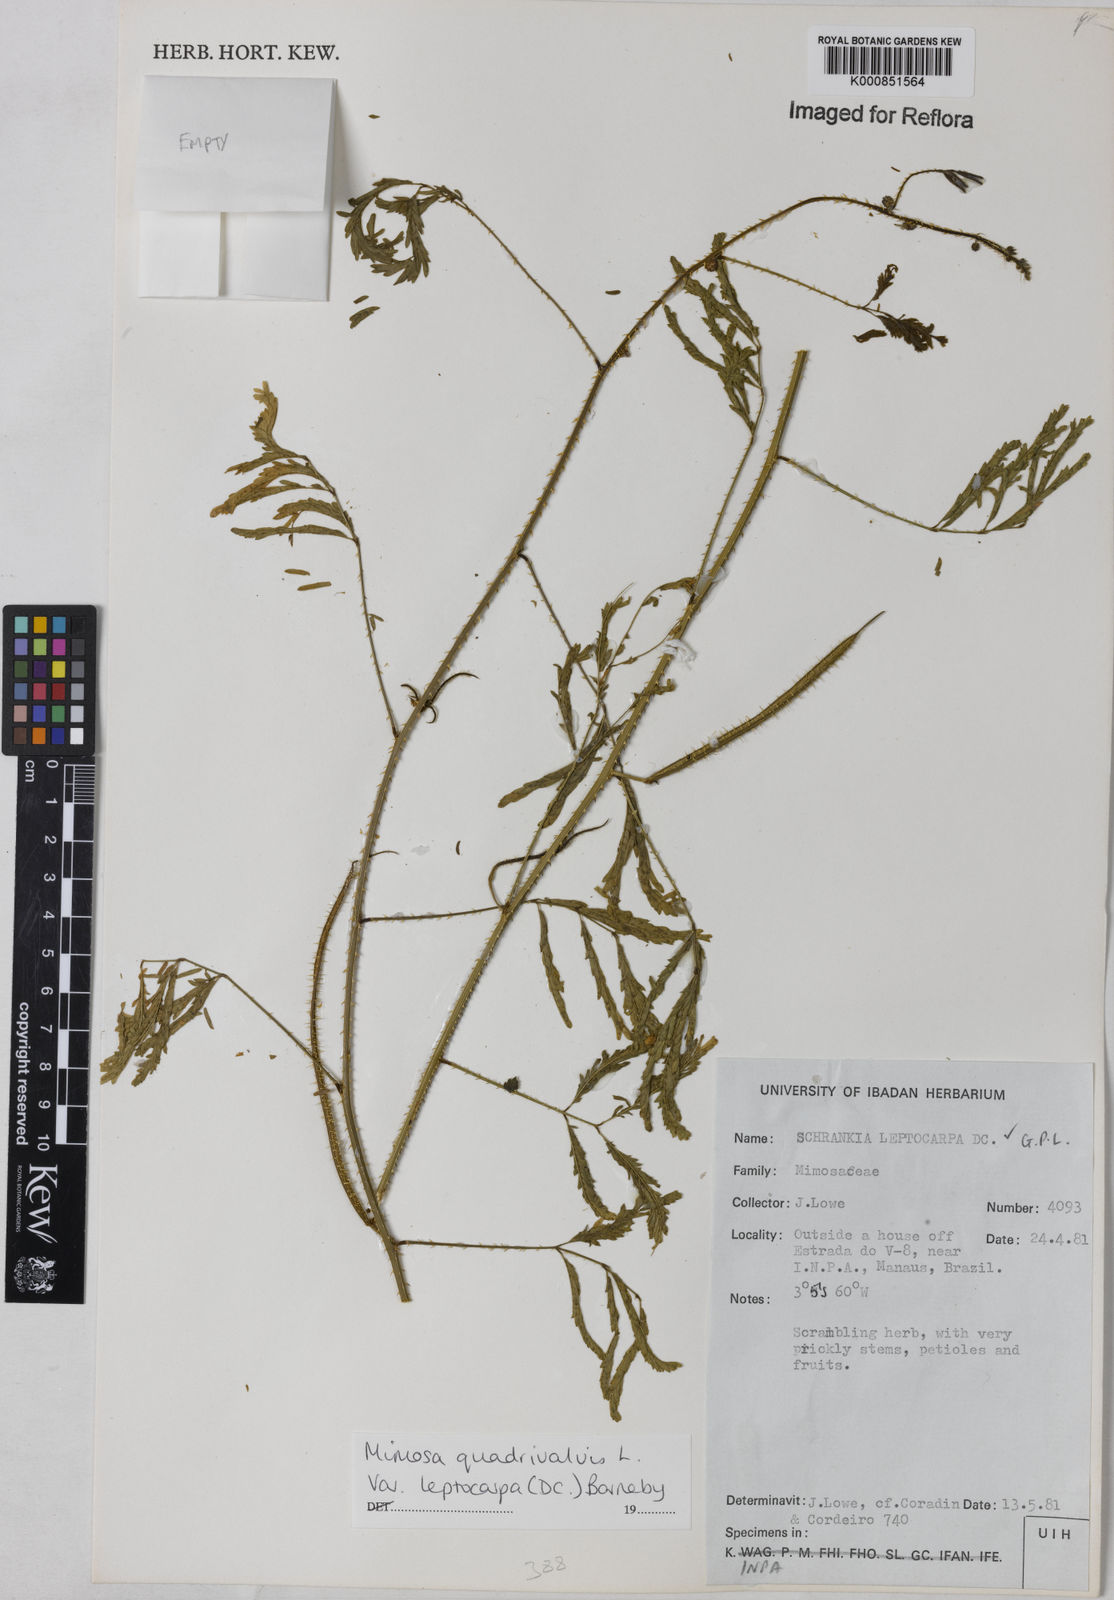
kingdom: Plantae
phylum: Tracheophyta
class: Magnoliopsida
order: Fabales
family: Fabaceae
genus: Mimosa
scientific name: Mimosa candollei
